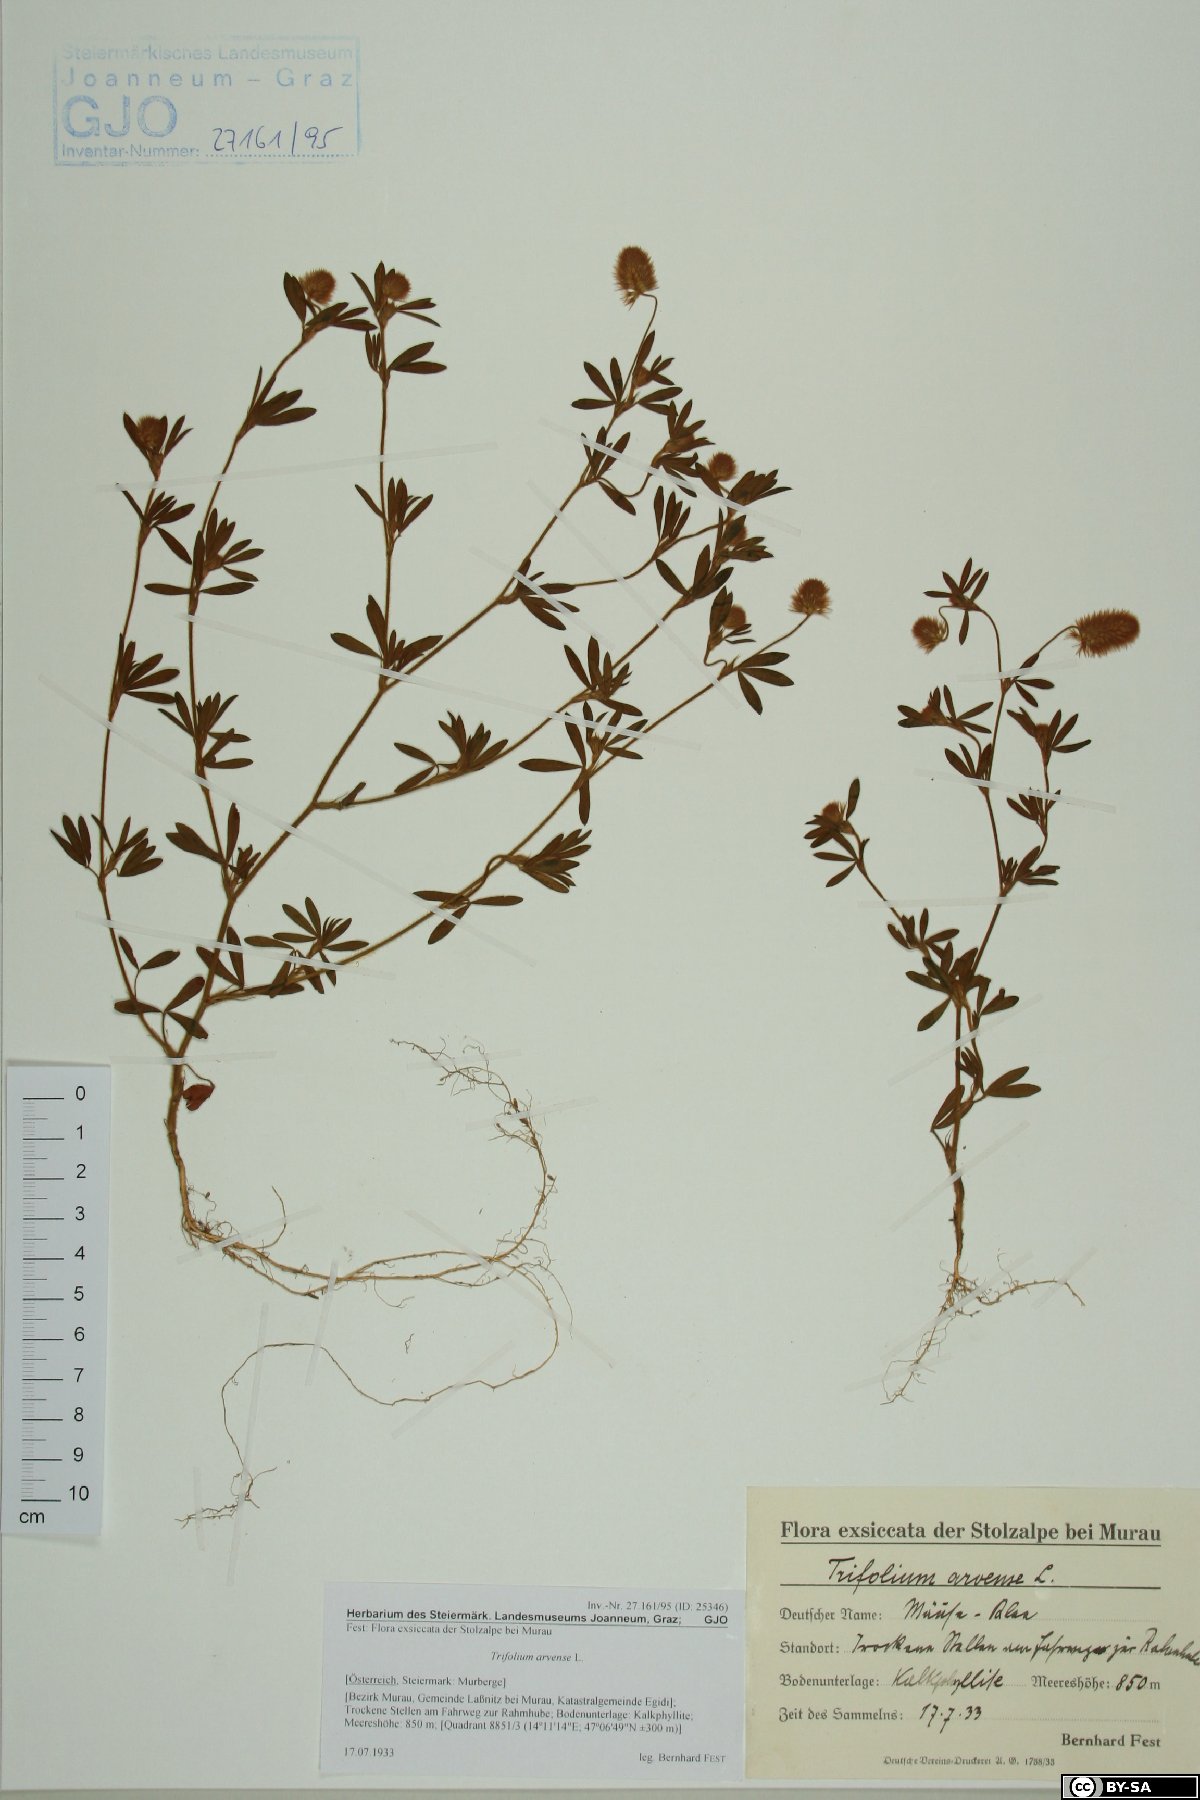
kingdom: Plantae
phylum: Tracheophyta
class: Magnoliopsida
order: Fabales
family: Fabaceae
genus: Trifolium
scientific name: Trifolium arvense
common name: Hare's-foot clover
